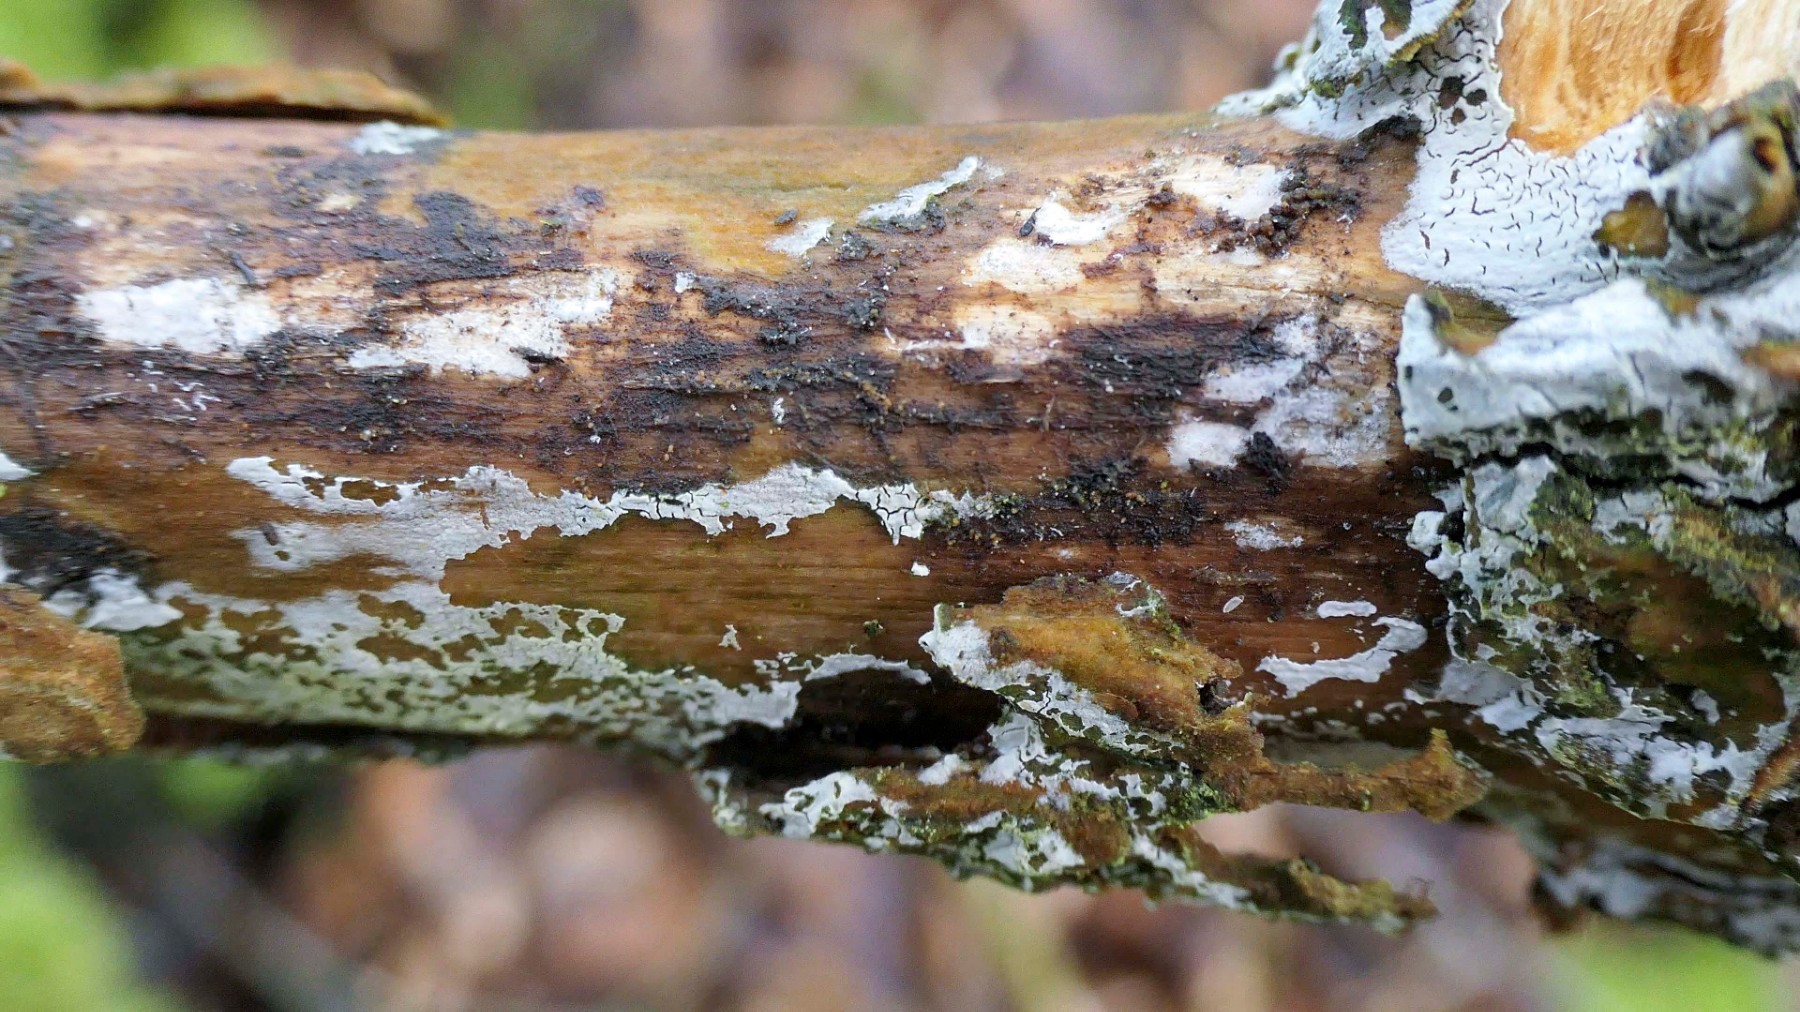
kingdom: Fungi
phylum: Basidiomycota
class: Agaricomycetes
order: Corticiales
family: Corticiaceae
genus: Lyomyces
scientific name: Lyomyces sambuci
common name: almindelig hyldehinde
